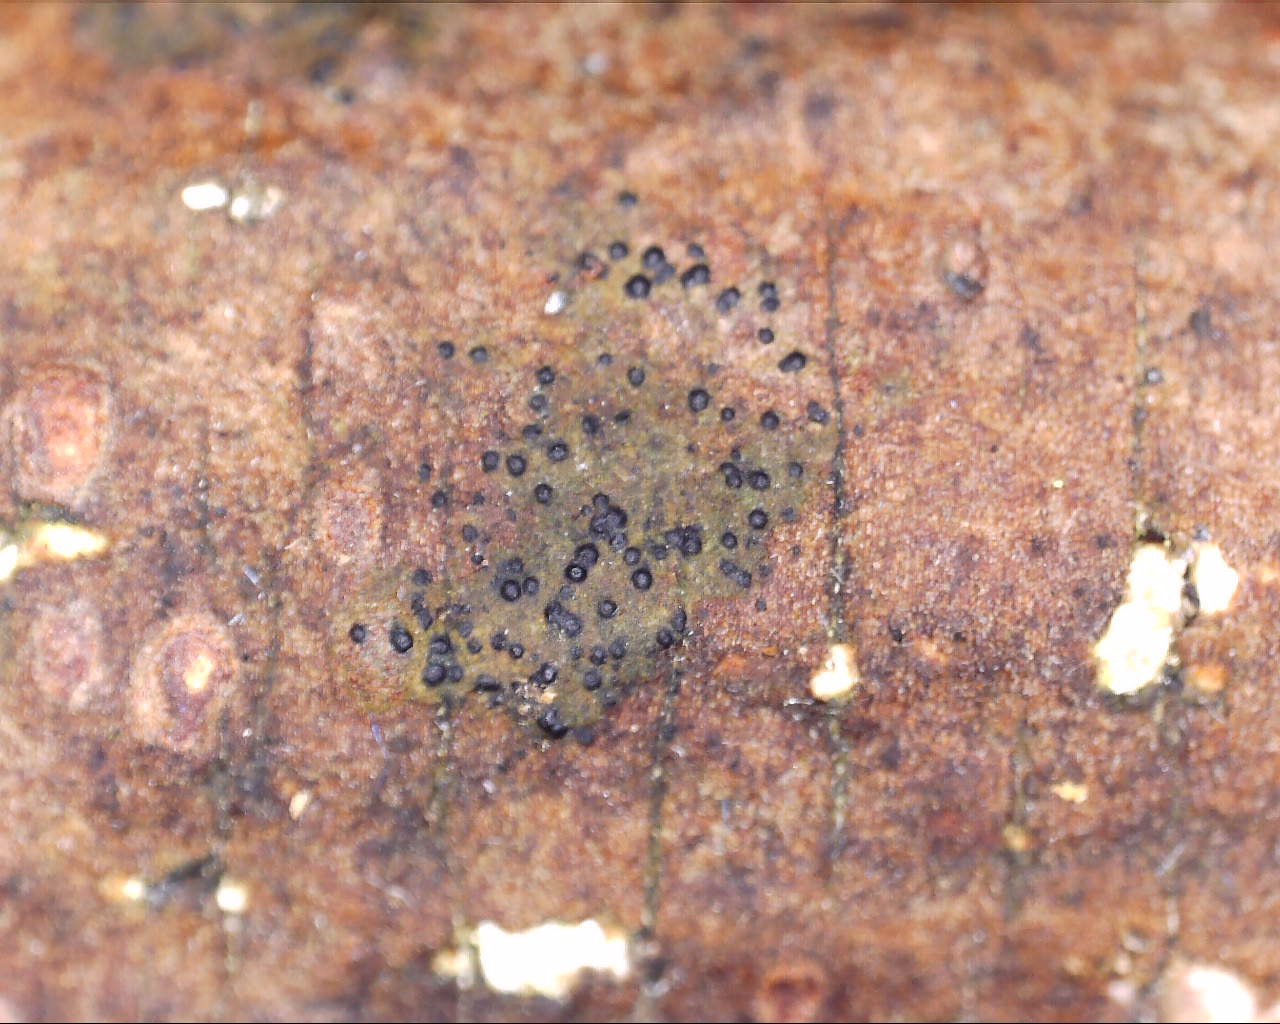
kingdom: Fungi
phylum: Ascomycota
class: Lecanoromycetes
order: Ostropales
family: Porinaceae
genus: Pseudosagedia
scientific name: Pseudosagedia aenea
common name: grønlig porina
